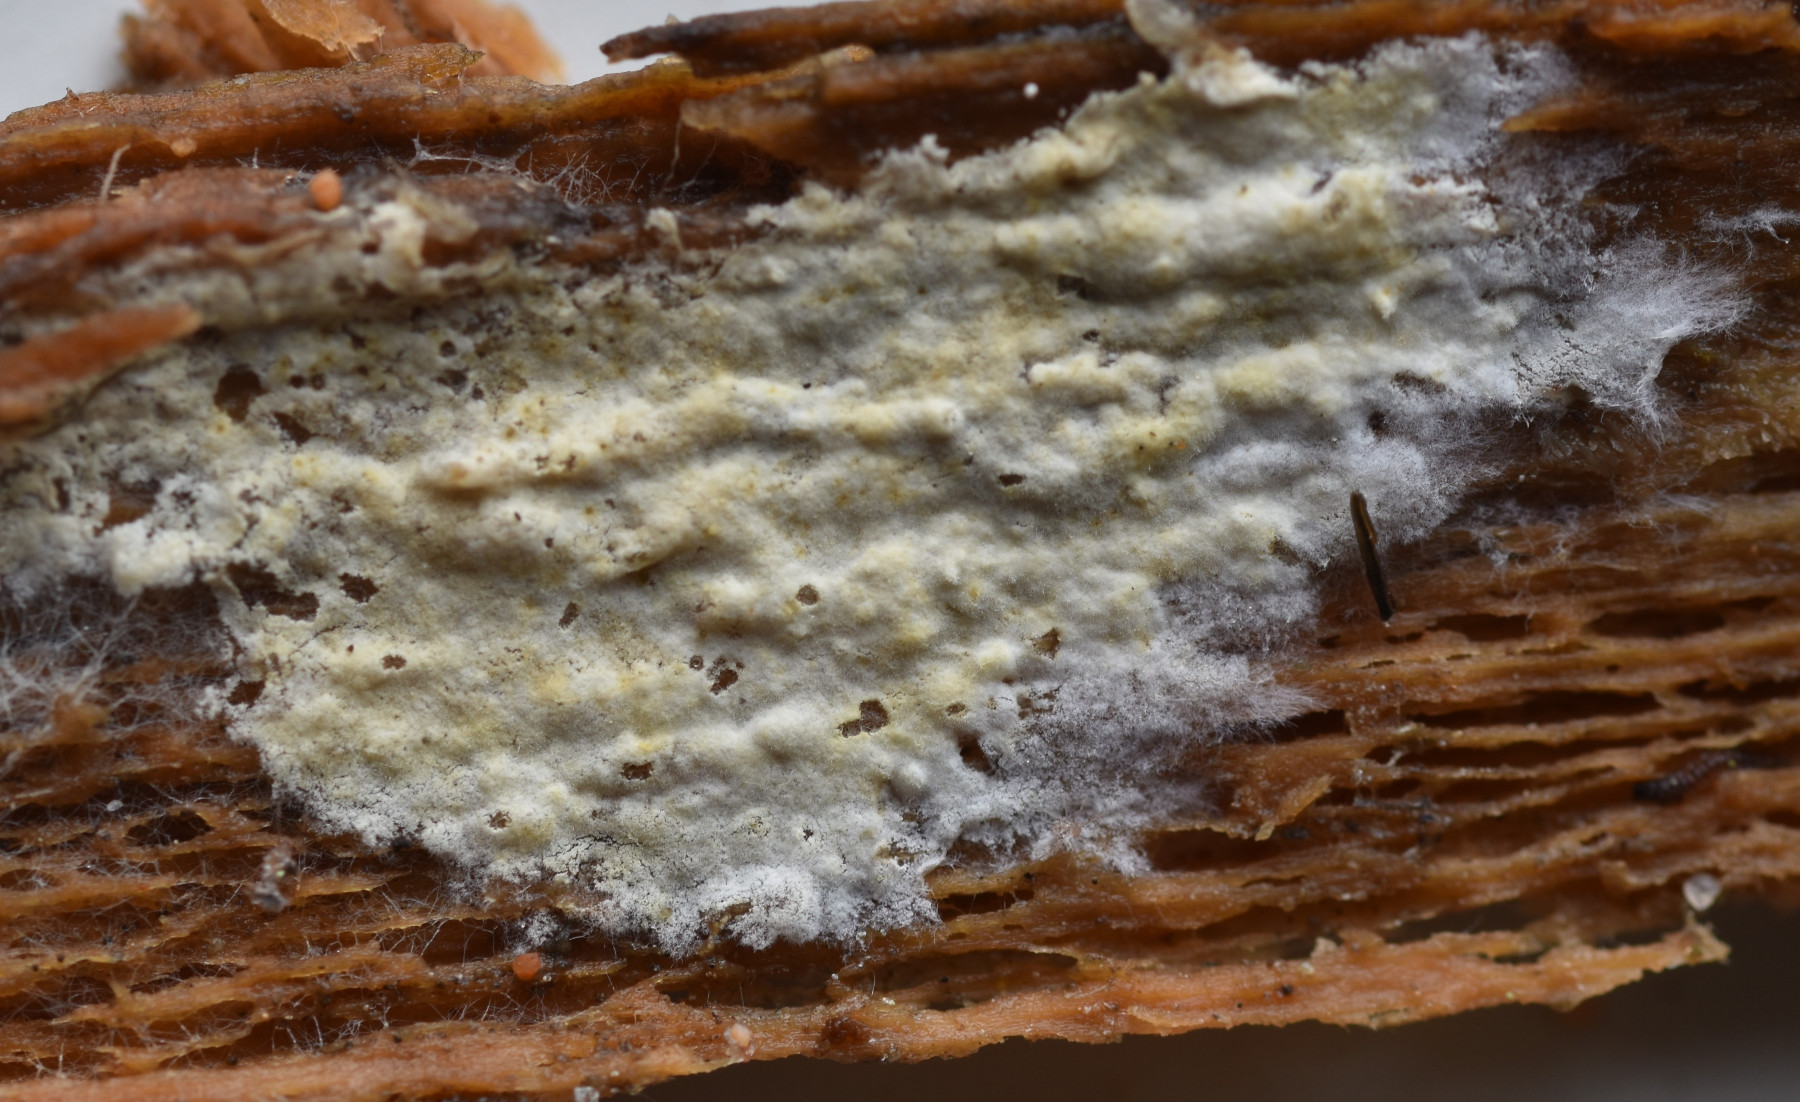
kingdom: Fungi
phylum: Basidiomycota
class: Agaricomycetes
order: Atheliales
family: Atheliaceae
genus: Amphinema
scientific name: Amphinema byssoides
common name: almindelig rodhinde
